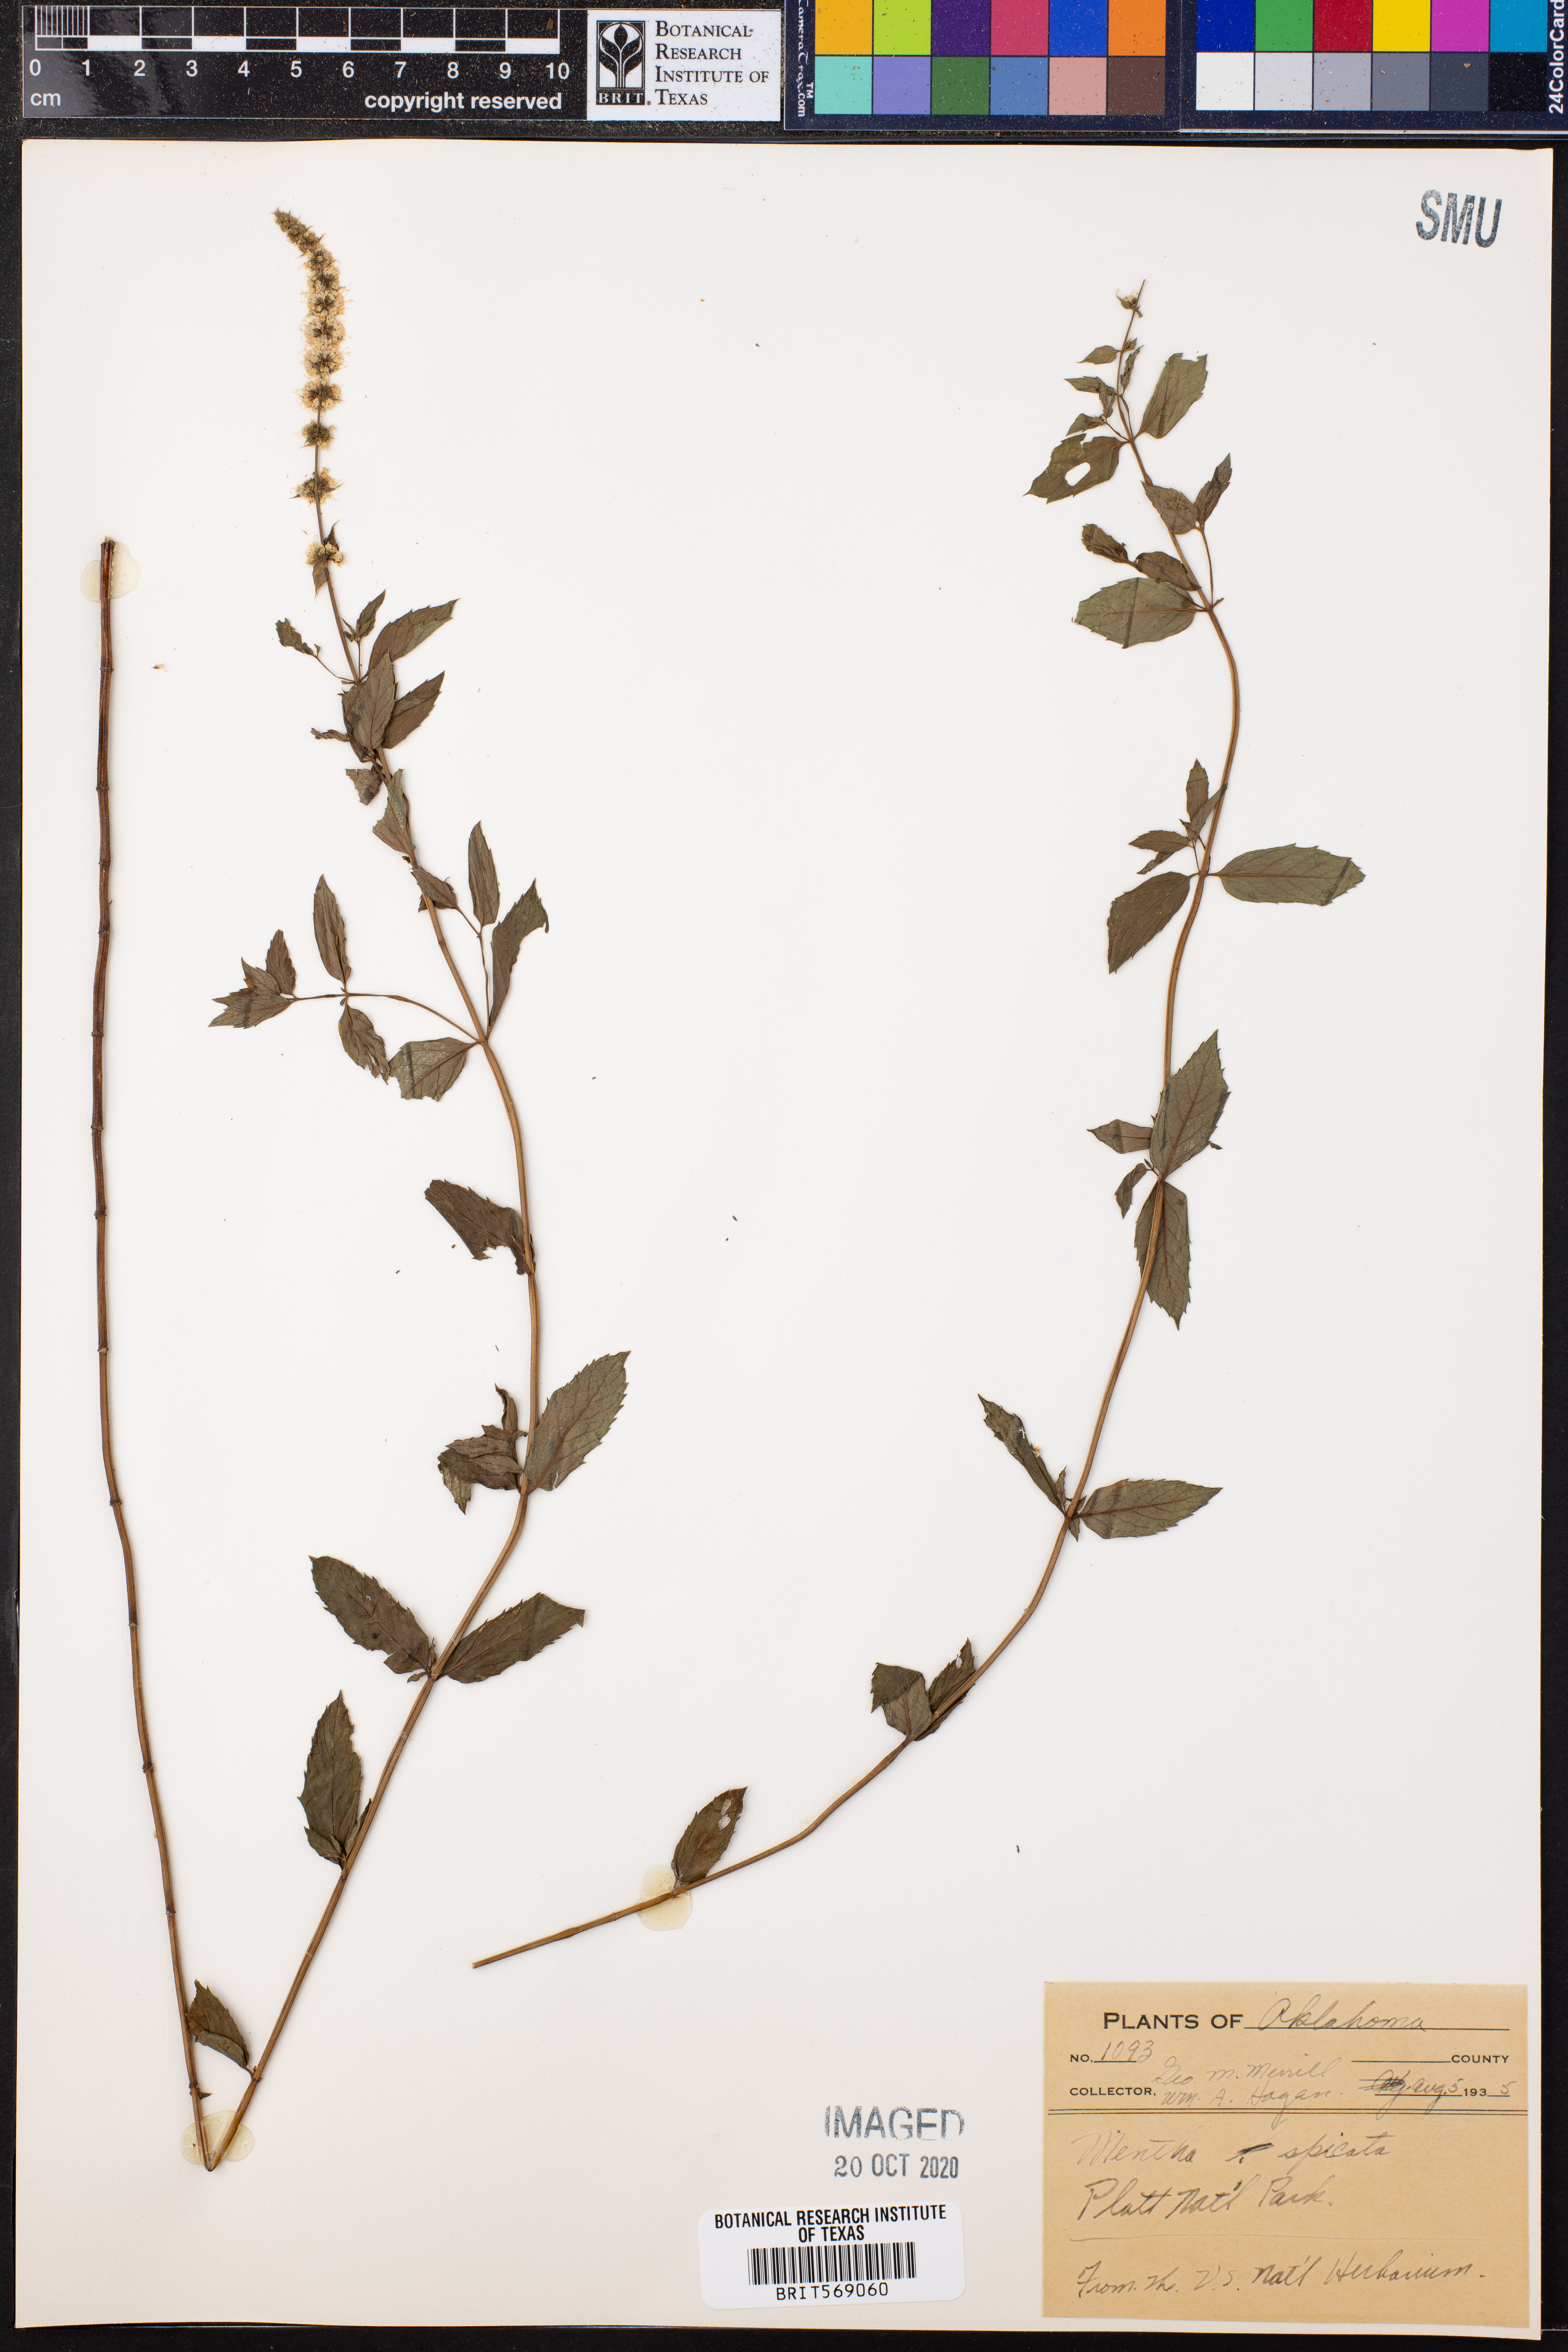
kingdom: Plantae
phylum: Tracheophyta
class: Magnoliopsida
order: Lamiales
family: Lamiaceae
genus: Mentha
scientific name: Mentha spicata
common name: Spearmint
